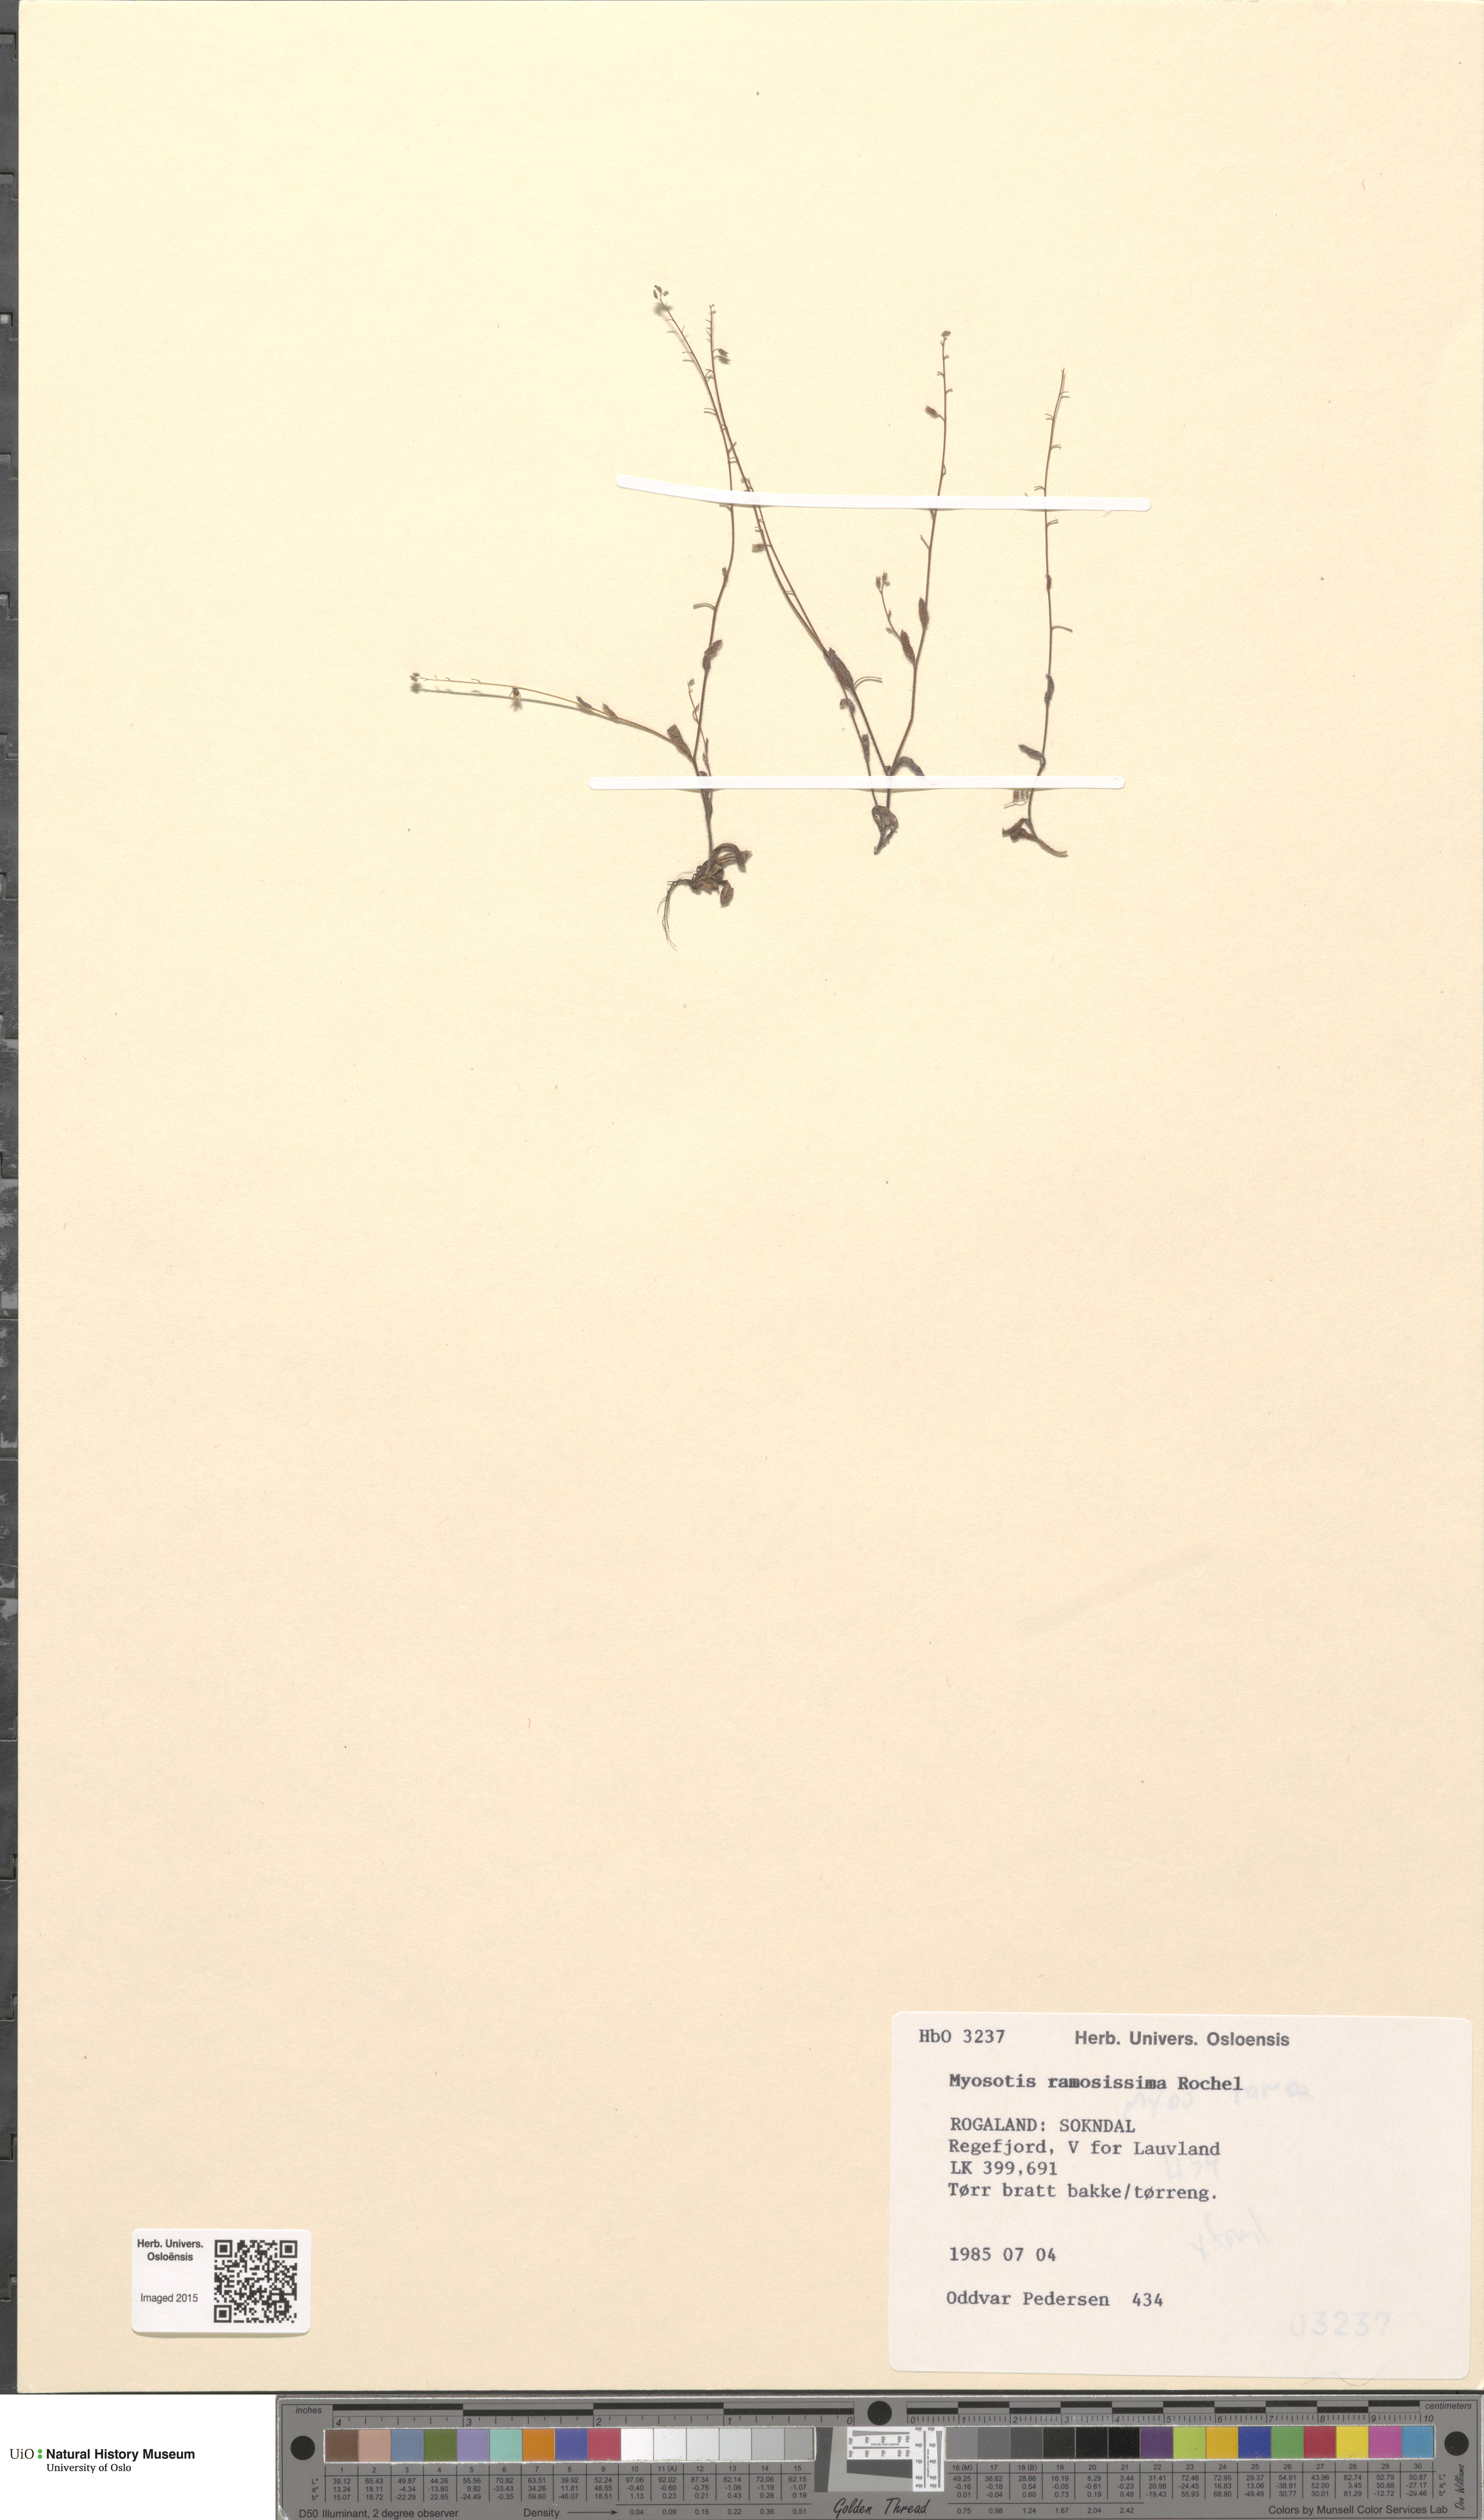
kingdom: Plantae
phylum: Tracheophyta
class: Magnoliopsida
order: Boraginales
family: Boraginaceae
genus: Myosotis
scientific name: Myosotis ramosissima
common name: Early forget-me-not
